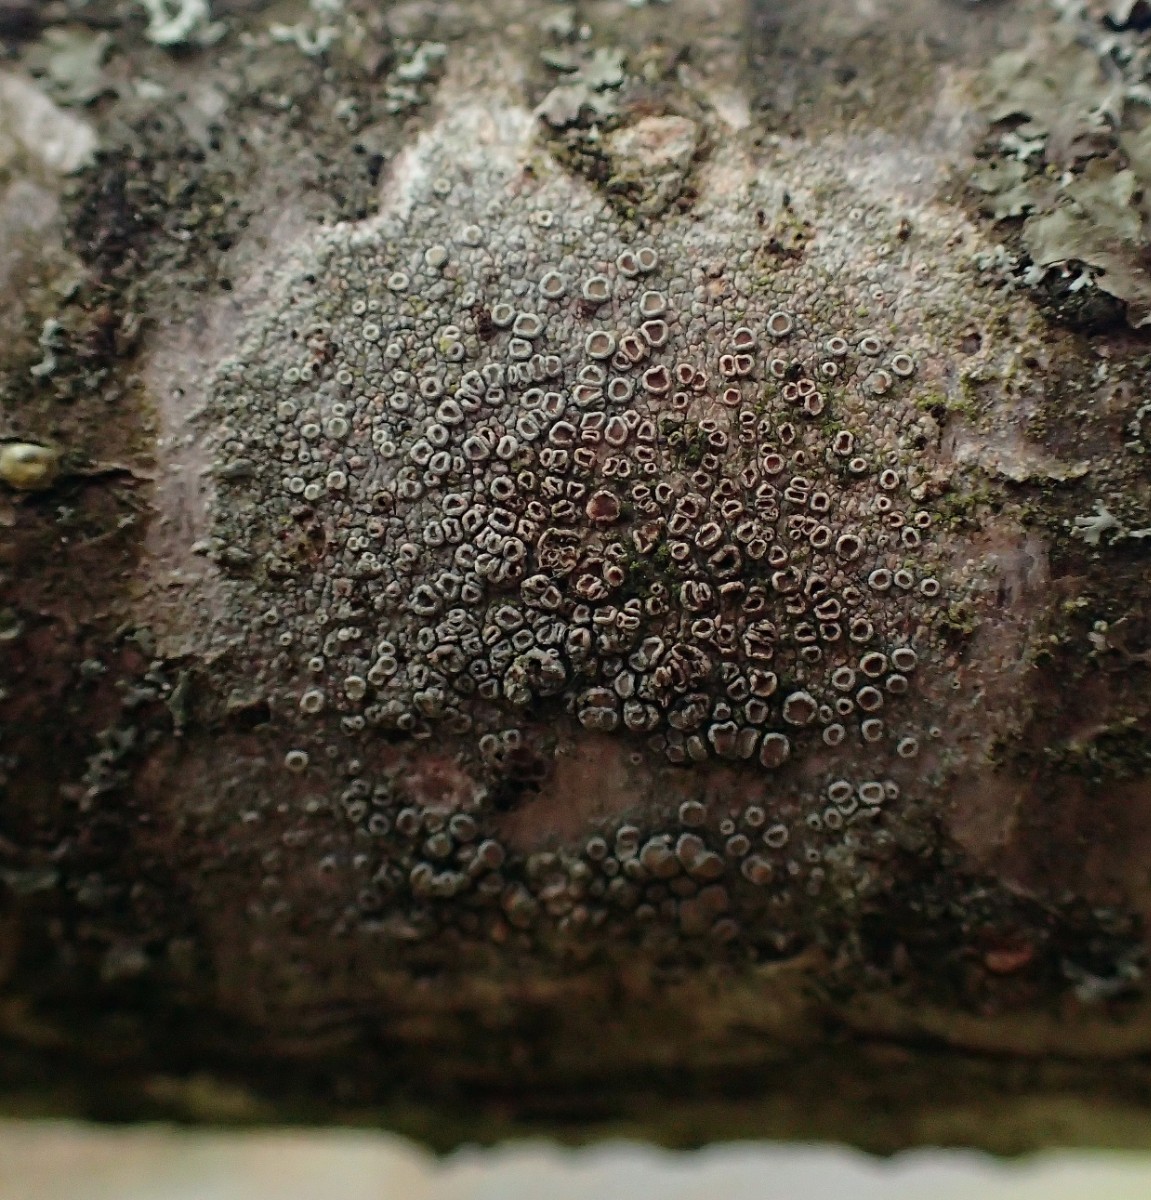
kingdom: Fungi
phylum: Ascomycota
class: Lecanoromycetes
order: Lecanorales
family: Lecanoraceae
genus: Lecanora
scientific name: Lecanora chlarotera
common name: brun kantskivelav
